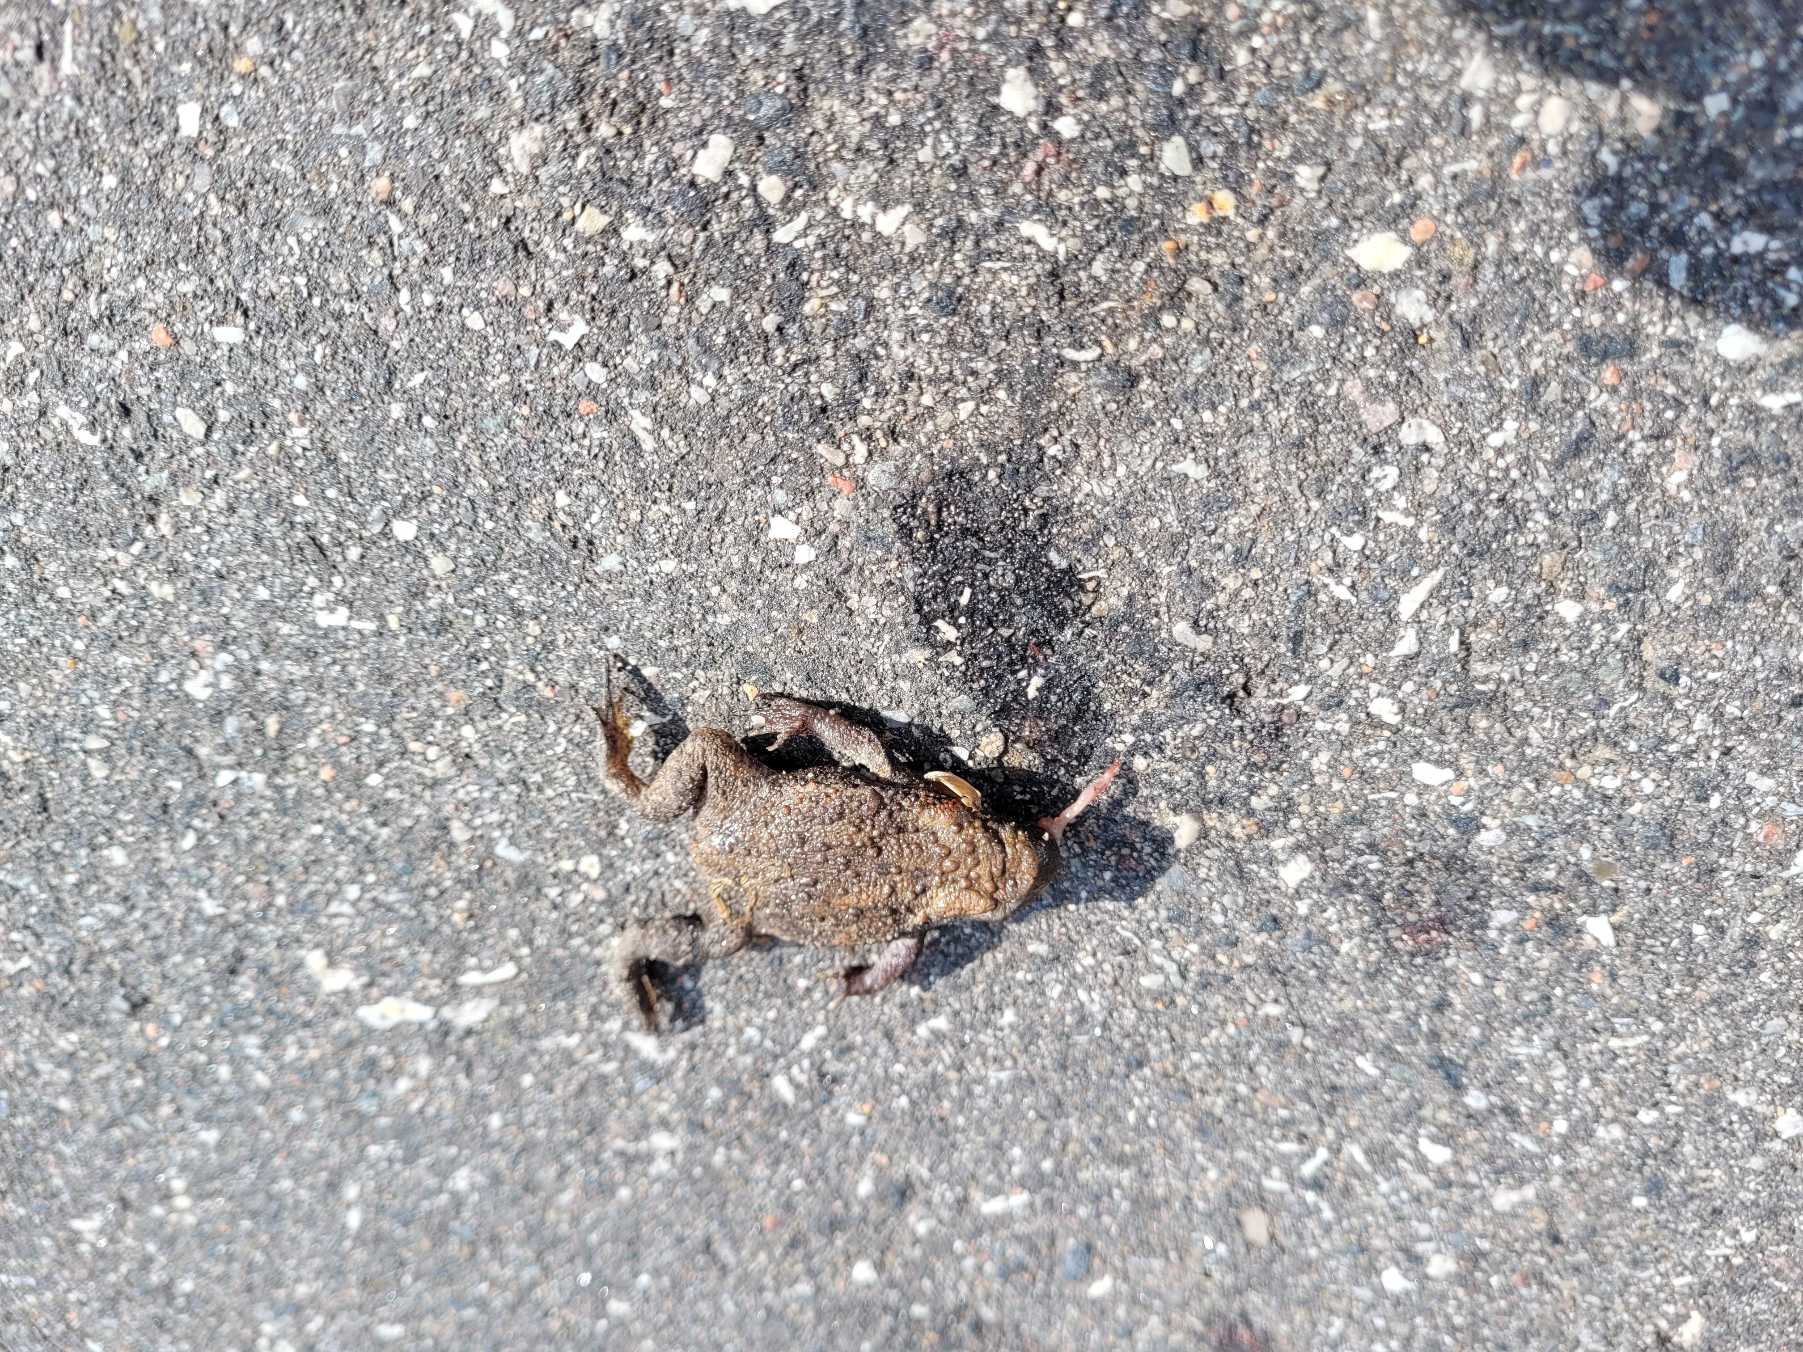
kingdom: Animalia
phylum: Chordata
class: Amphibia
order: Anura
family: Bufonidae
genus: Bufo
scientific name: Bufo bufo
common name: Skrubtudse
